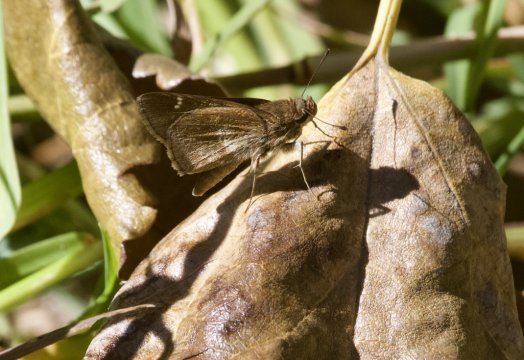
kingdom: Animalia
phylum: Arthropoda
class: Insecta
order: Lepidoptera
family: Hesperiidae
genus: Lerema
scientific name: Lerema accius
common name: Clouded Skipper
